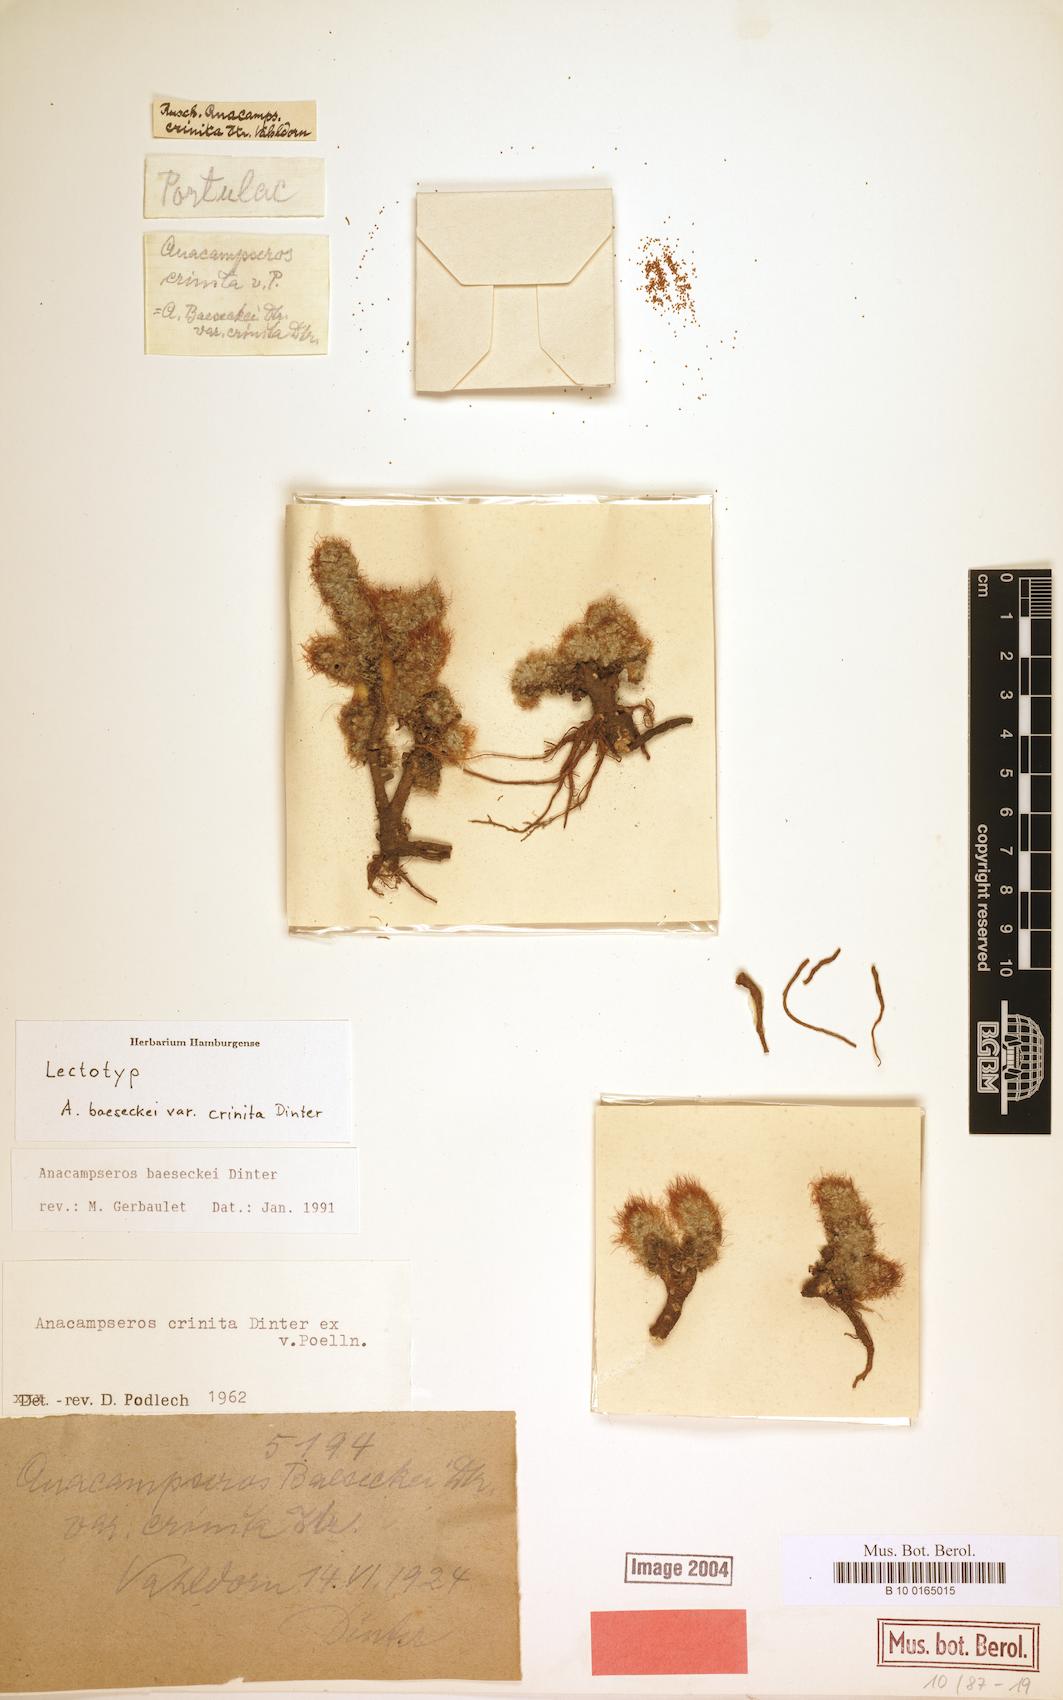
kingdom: Plantae
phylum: Tracheophyta
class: Magnoliopsida
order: Caryophyllales
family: Anacampserotaceae
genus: Anacampseros
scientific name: Anacampseros baeseckei
